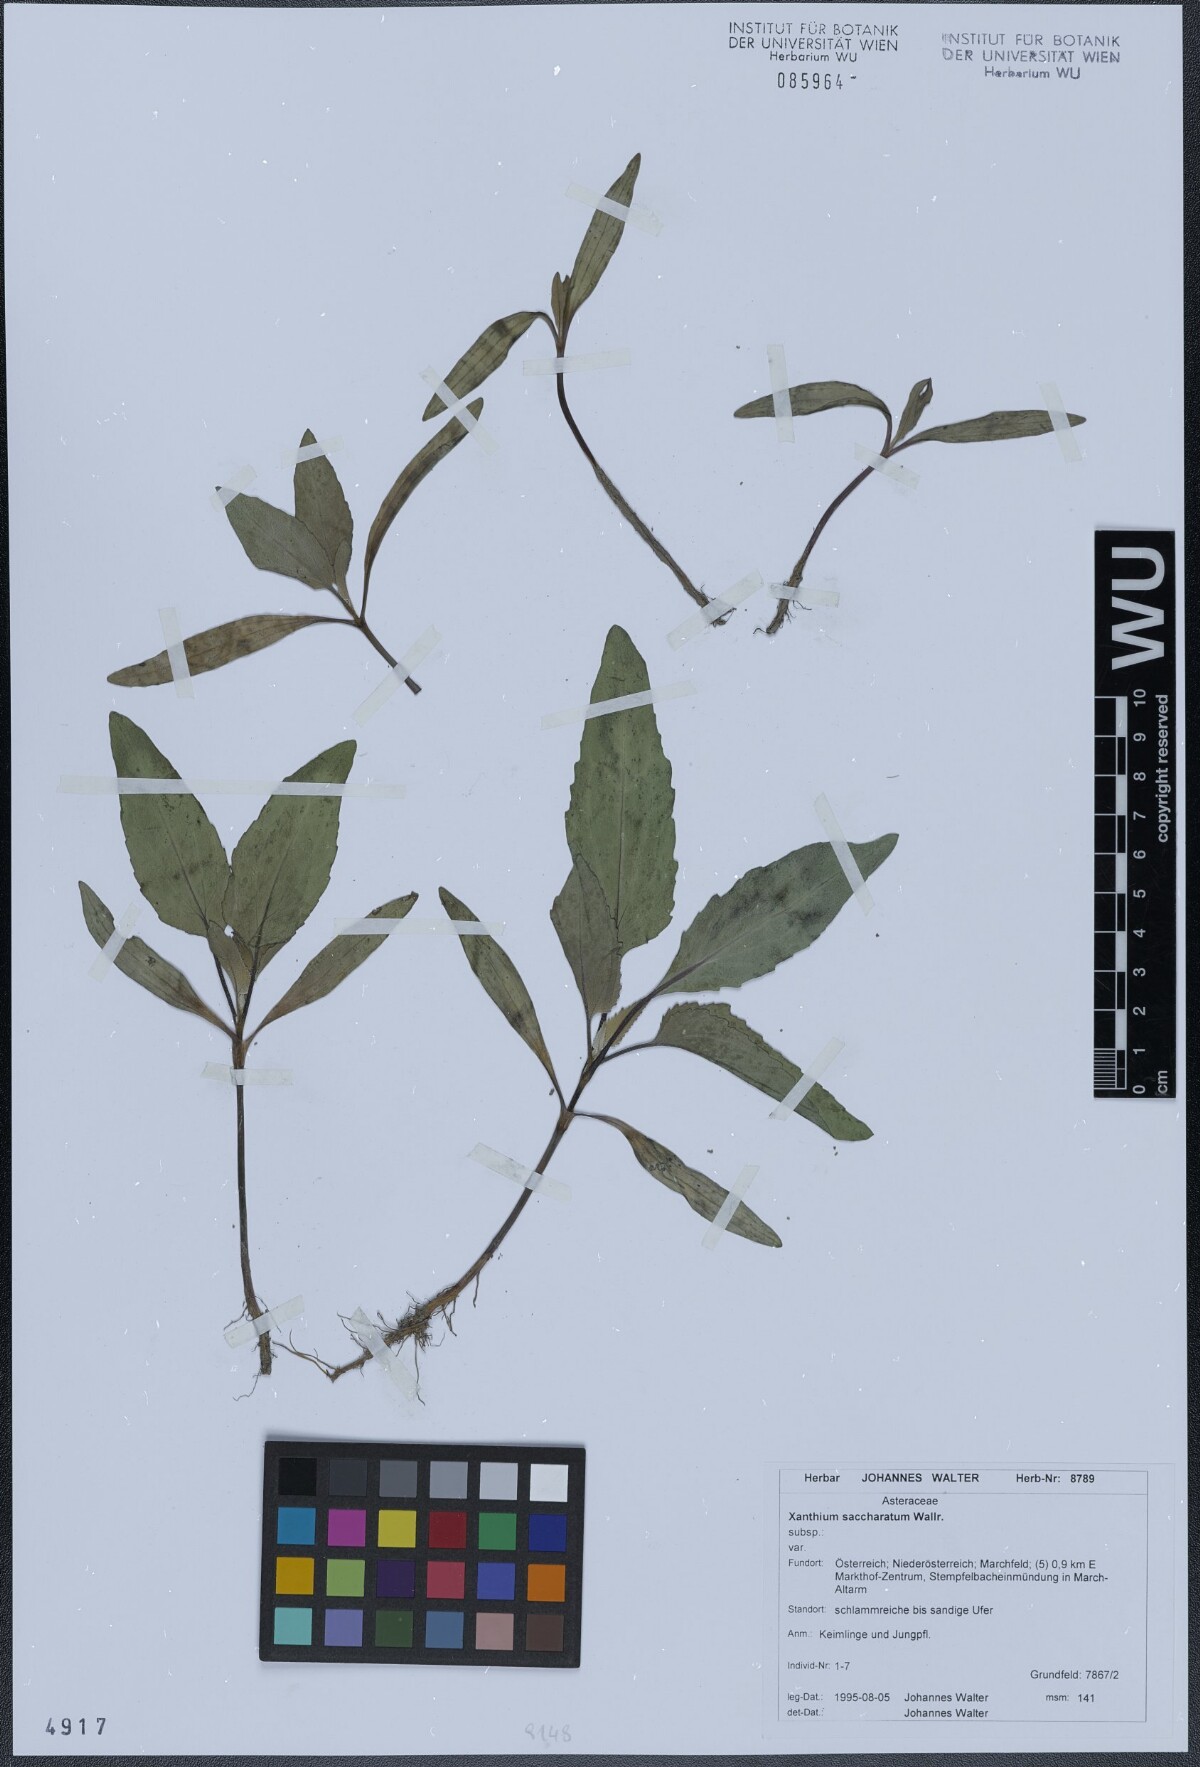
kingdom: Plantae
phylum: Tracheophyta
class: Magnoliopsida
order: Asterales
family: Asteraceae
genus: Xanthium
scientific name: Xanthium orientale
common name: Californian burr
